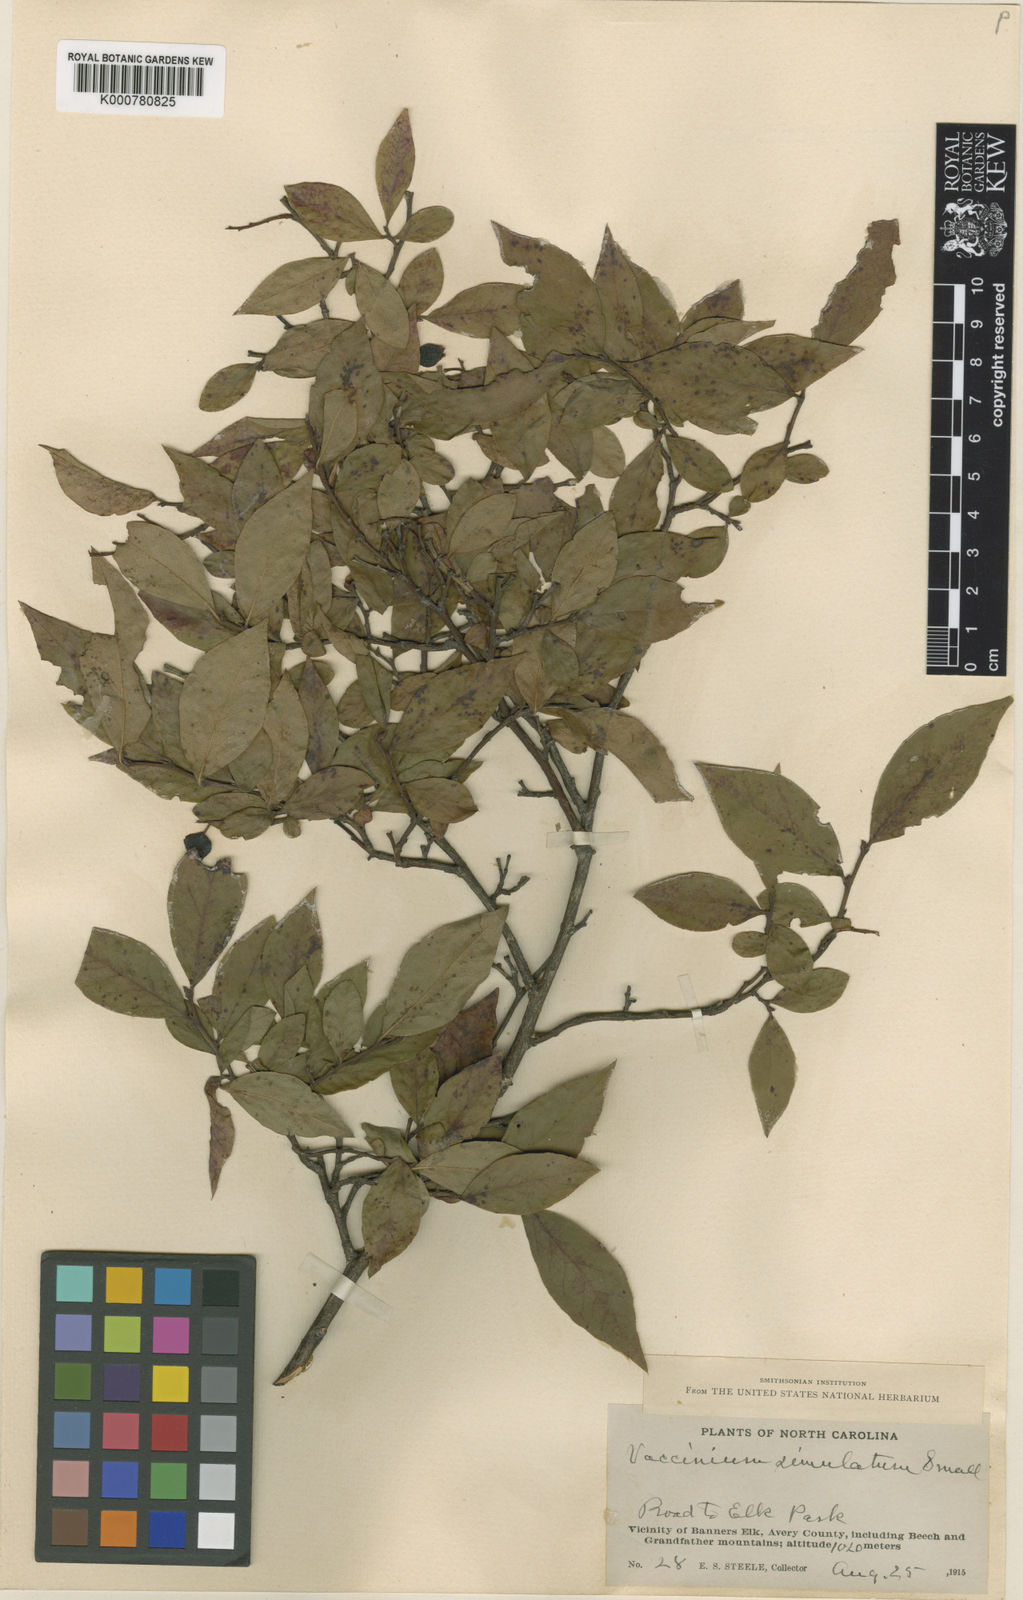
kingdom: Plantae
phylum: Tracheophyta
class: Magnoliopsida
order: Ericales
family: Ericaceae
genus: Vaccinium
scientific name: Vaccinium corymbosum
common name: Blueberry
